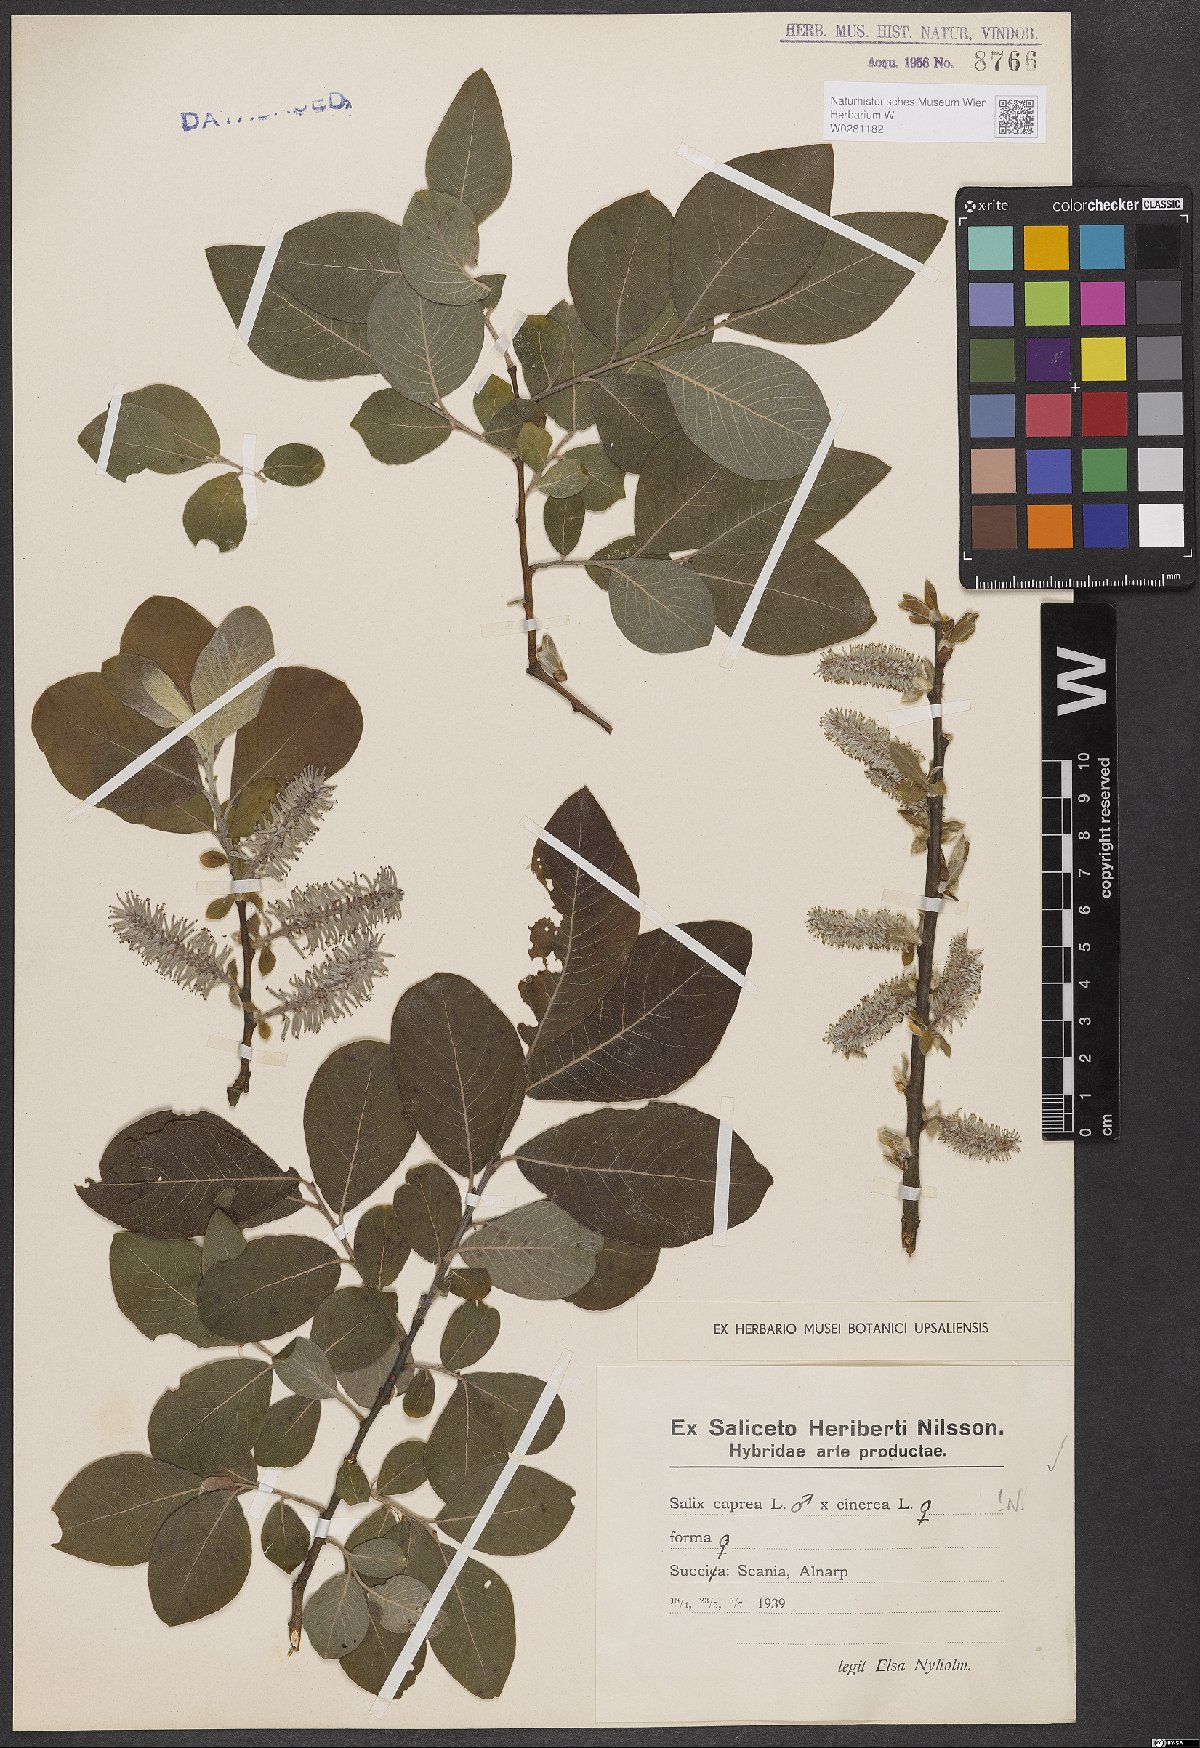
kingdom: Plantae
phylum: Tracheophyta
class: Magnoliopsida
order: Malpighiales
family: Salicaceae
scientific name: Salicaceae
